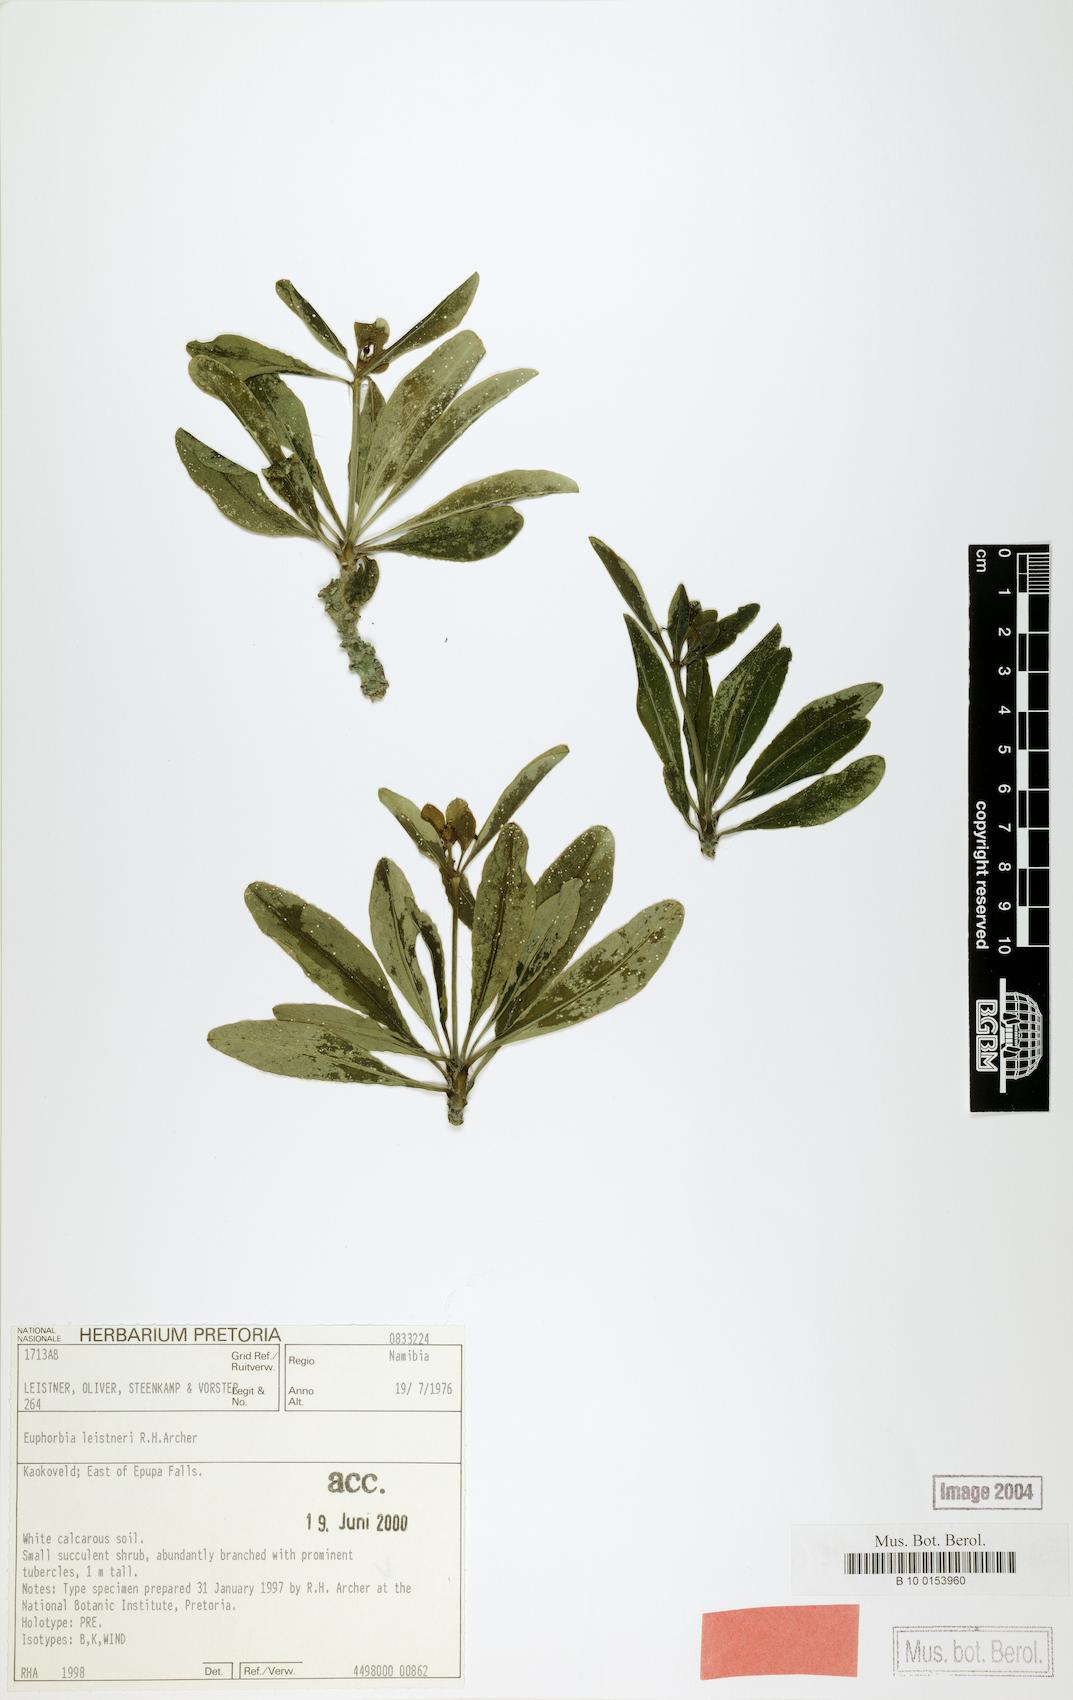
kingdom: Plantae
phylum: Tracheophyta
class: Magnoliopsida
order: Malpighiales
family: Euphorbiaceae
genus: Euphorbia
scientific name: Euphorbia leistneri
